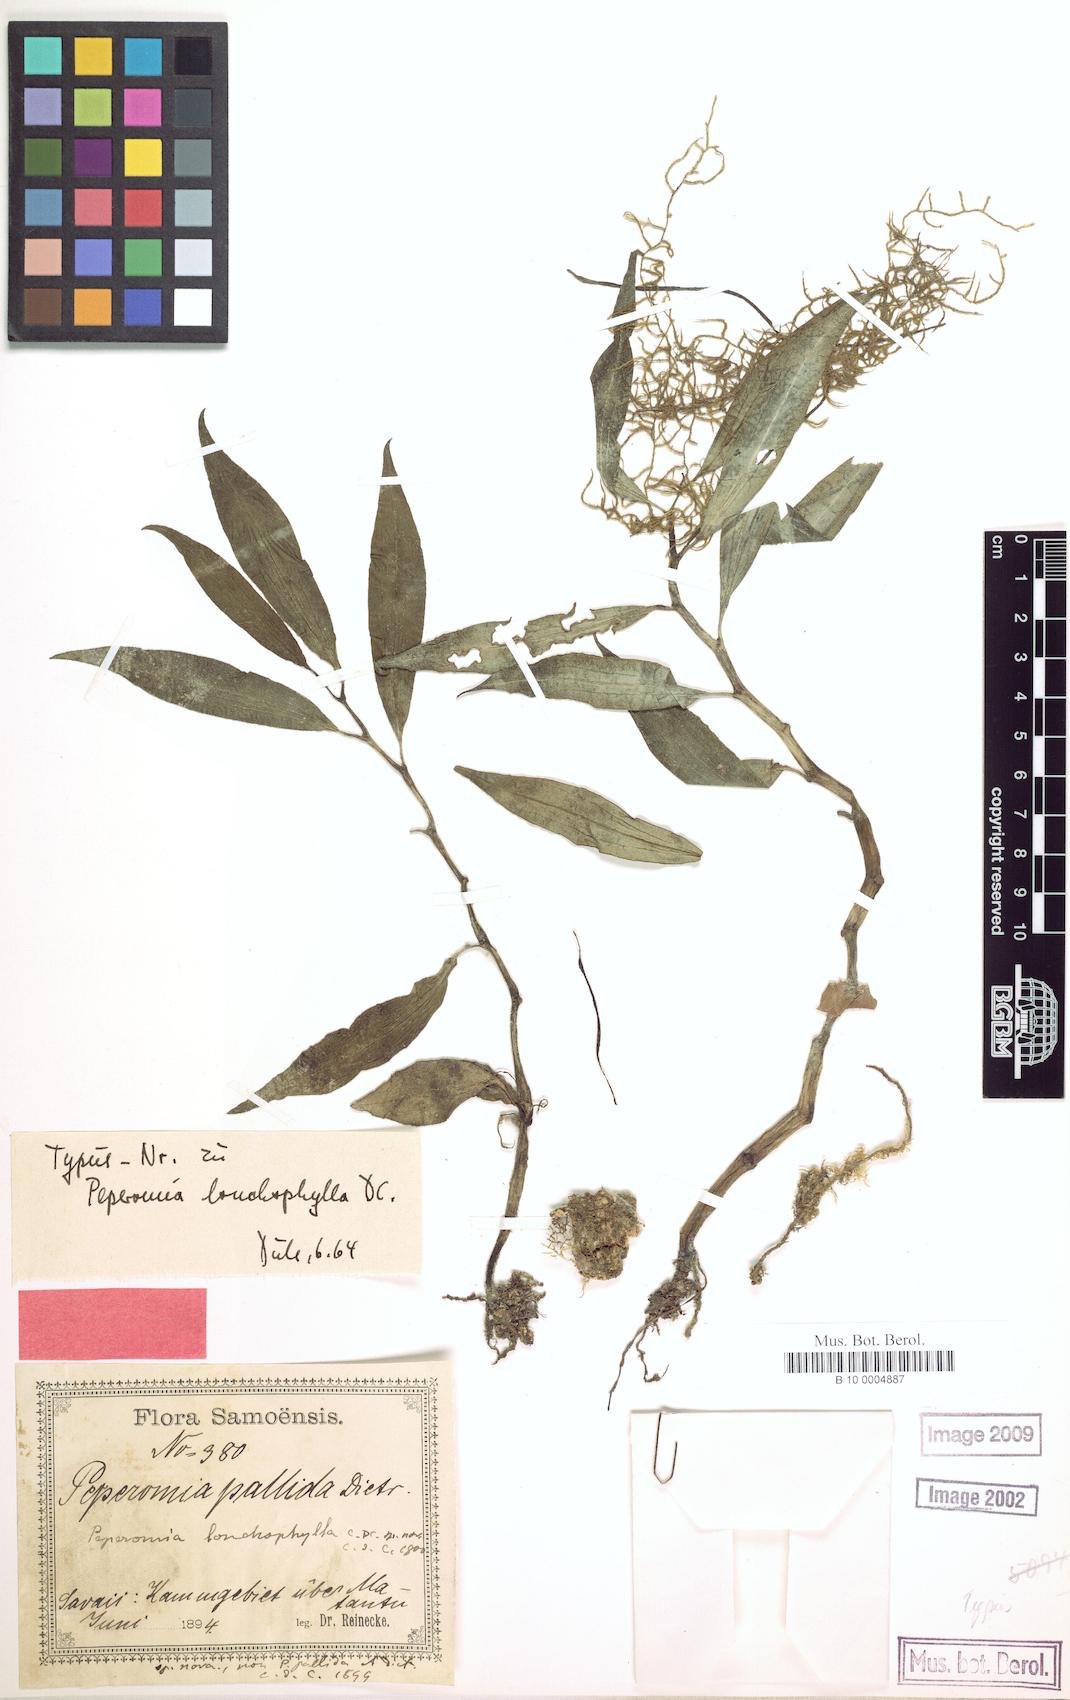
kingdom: Plantae
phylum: Tracheophyta
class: Magnoliopsida
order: Piperales
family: Piperaceae
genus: Peperomia
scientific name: Peperomia oahuensis
